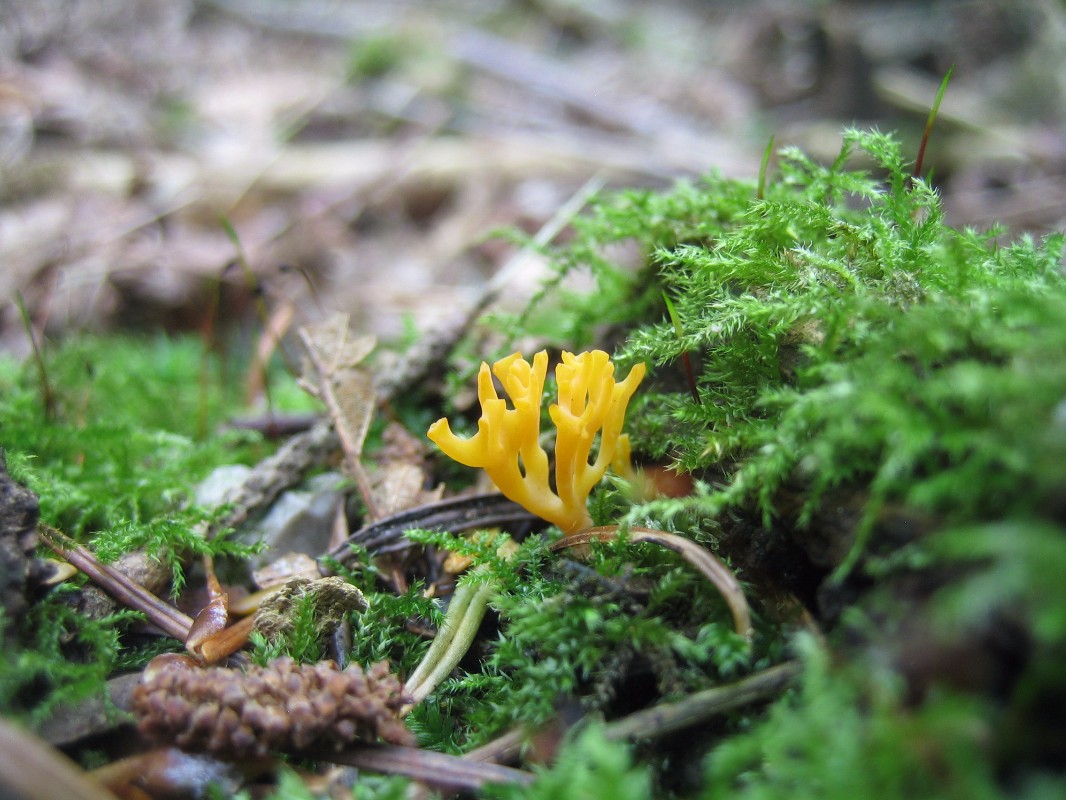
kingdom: Fungi
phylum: Basidiomycota
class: Agaricomycetes
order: Agaricales
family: Clavariaceae
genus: Ramariopsis
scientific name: Ramariopsis crocea
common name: gylden køllesvamp
